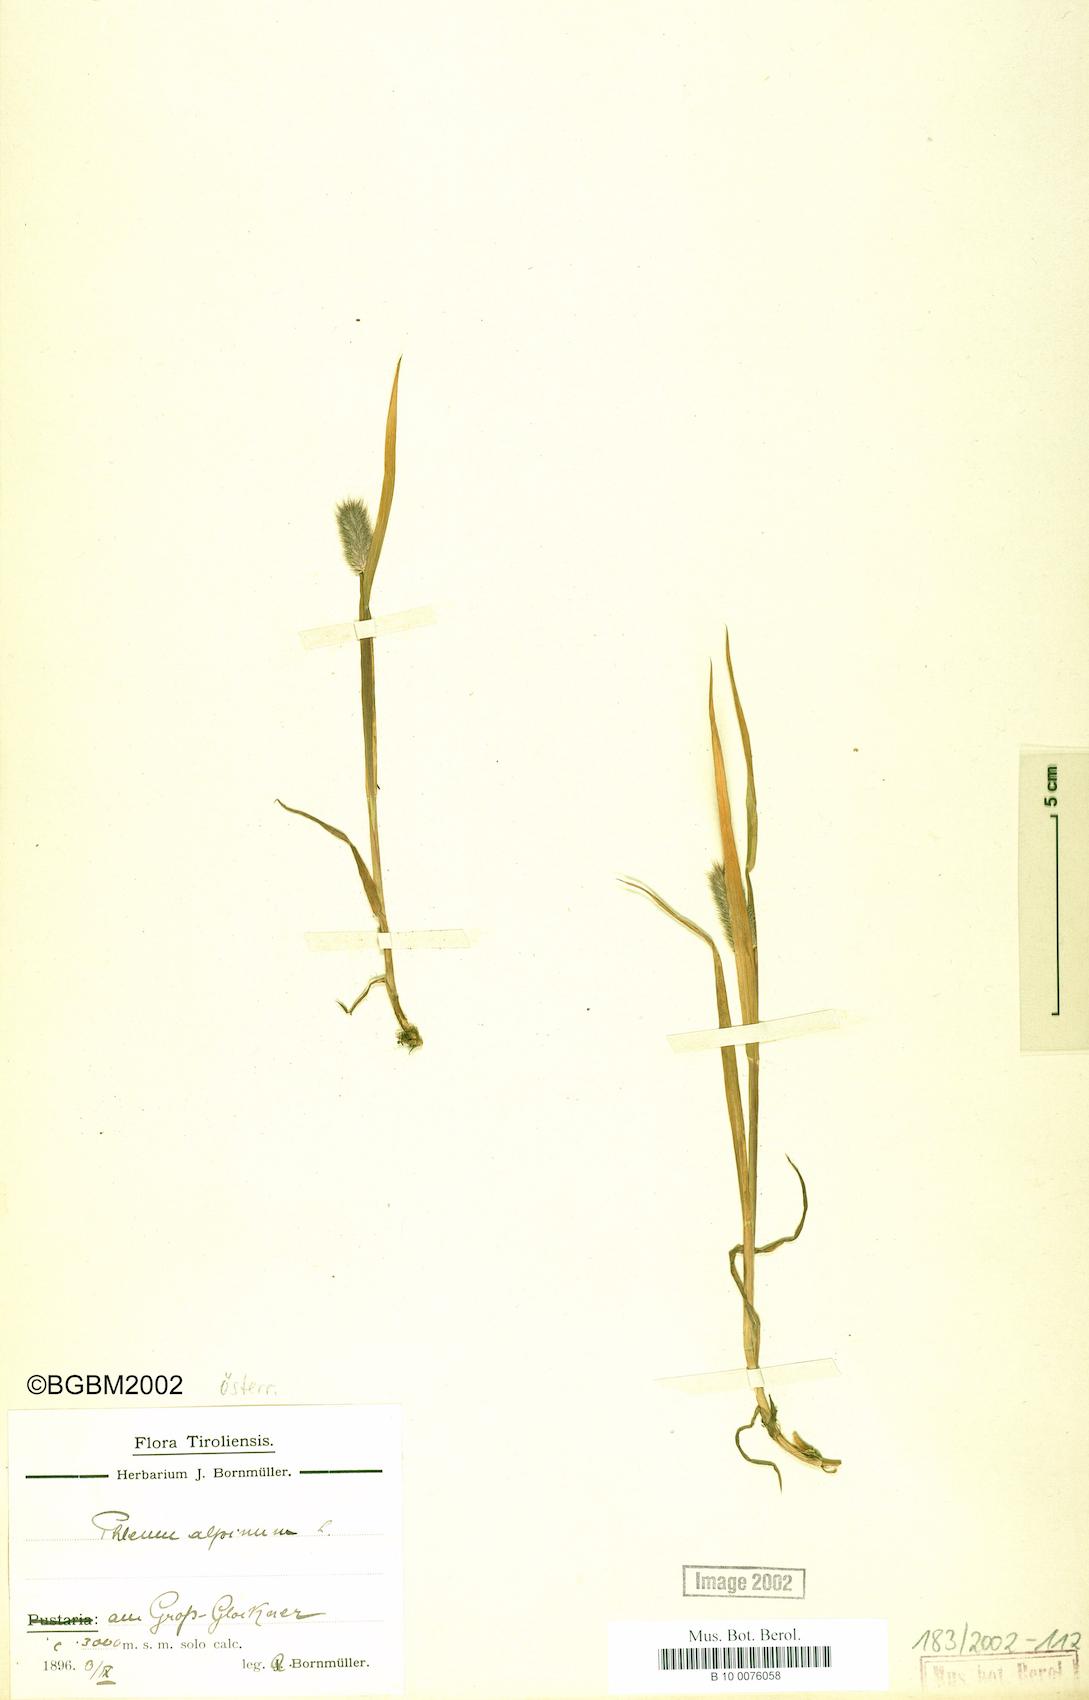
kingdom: Plantae
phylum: Tracheophyta
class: Liliopsida
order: Poales
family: Poaceae
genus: Phleum
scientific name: Phleum alpinum
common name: Alpine cat's-tail
